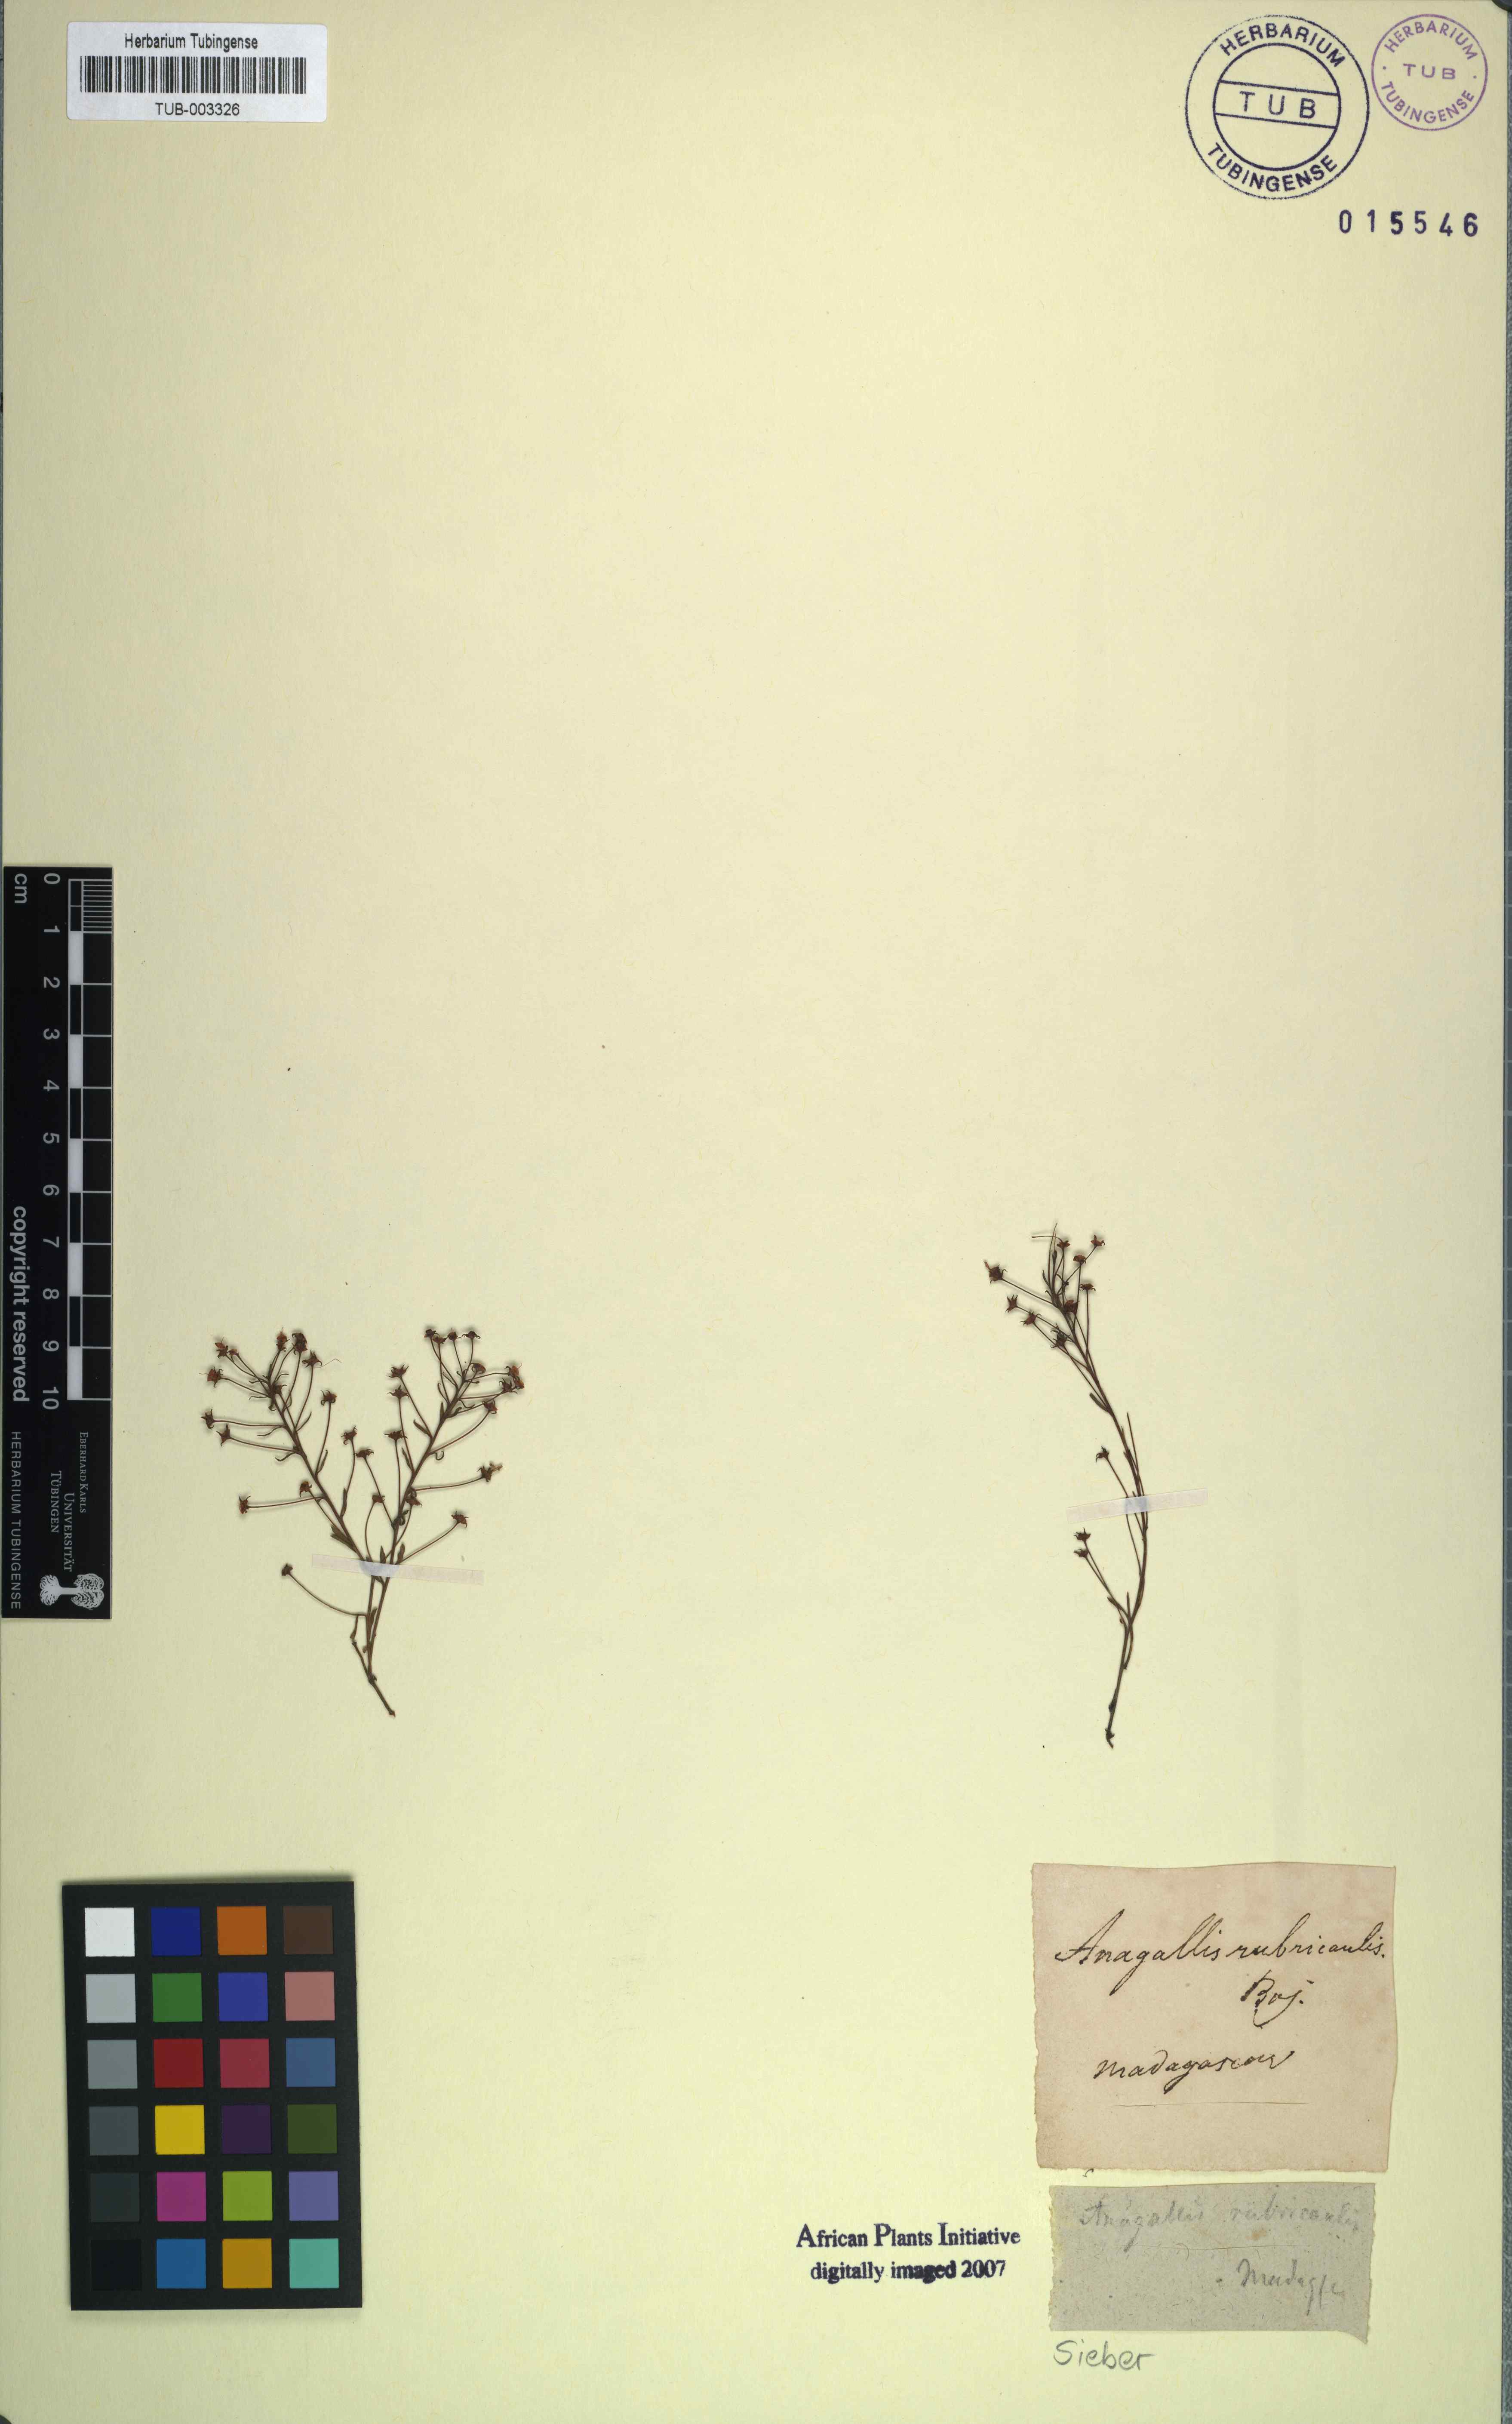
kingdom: Plantae
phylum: Tracheophyta
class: Magnoliopsida
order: Ericales
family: Primulaceae
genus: Lysimachia
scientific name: Lysimachia
